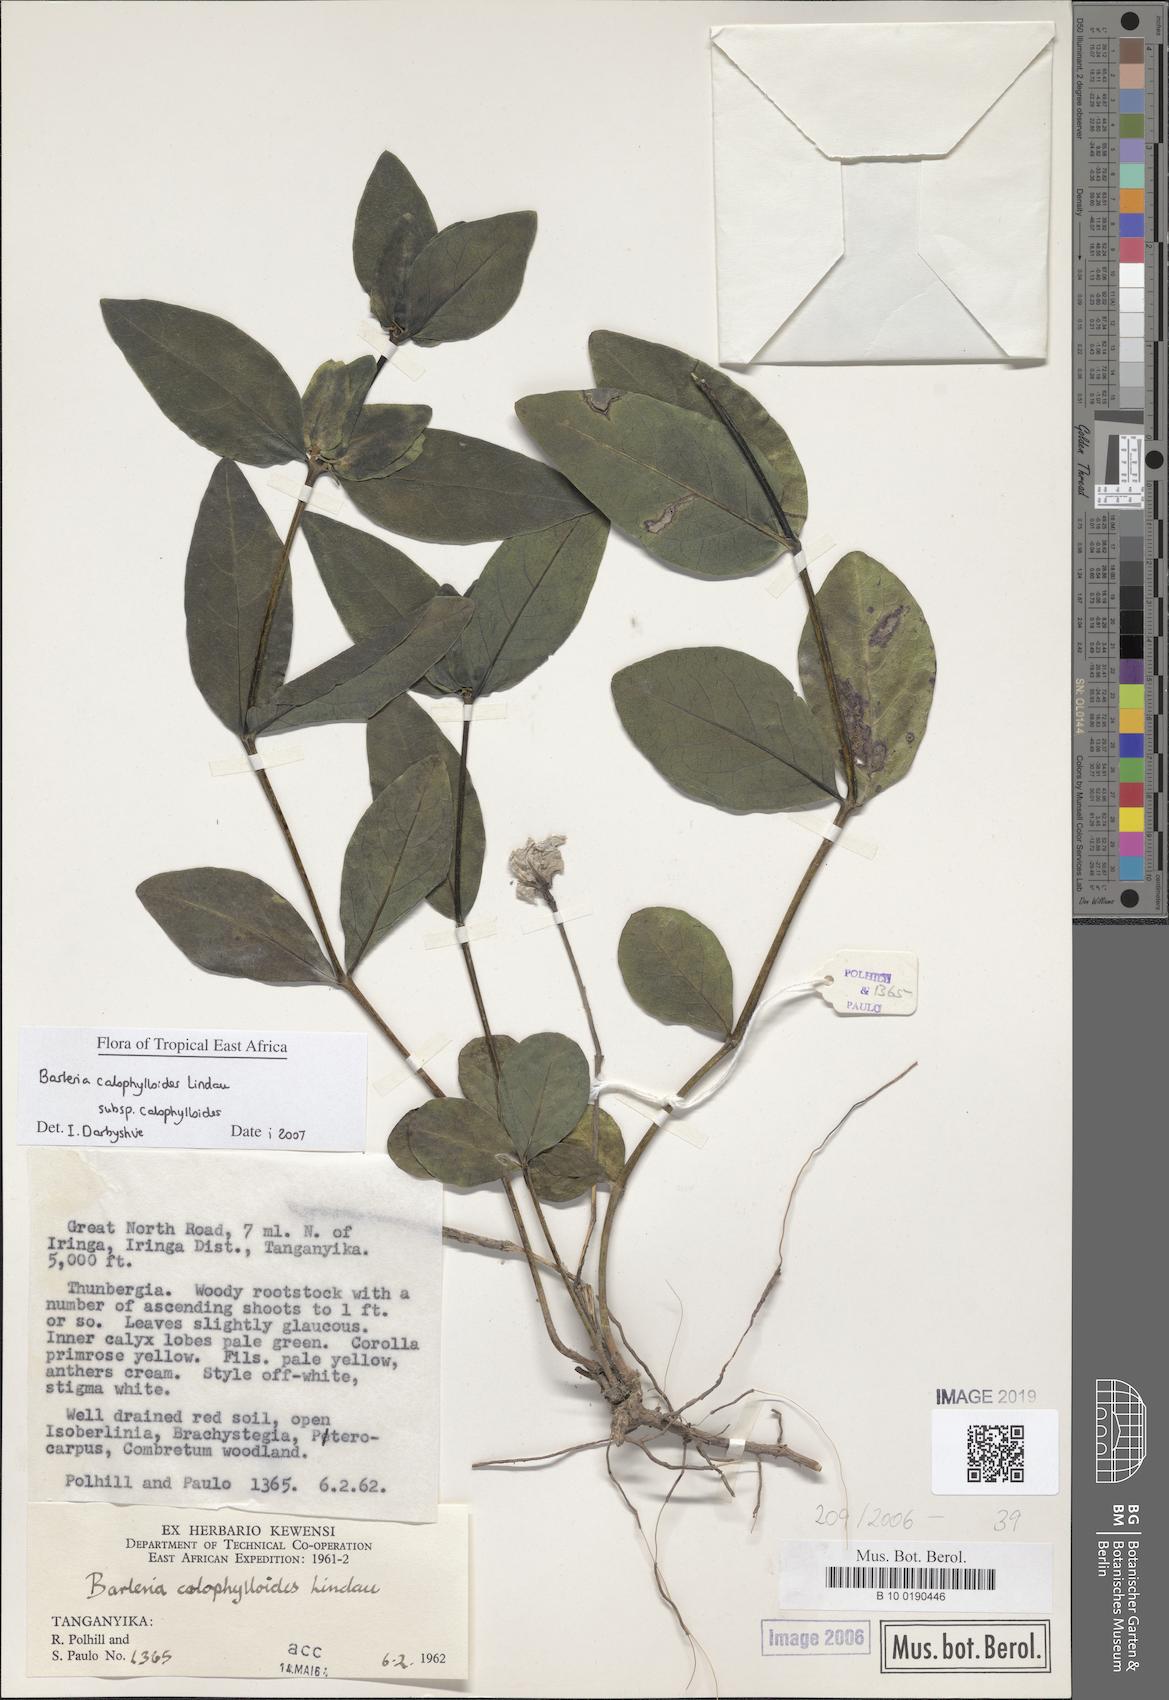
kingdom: Plantae
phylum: Tracheophyta
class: Magnoliopsida
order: Lamiales
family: Acanthaceae
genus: Barleria
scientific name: Barleria calophylloides
